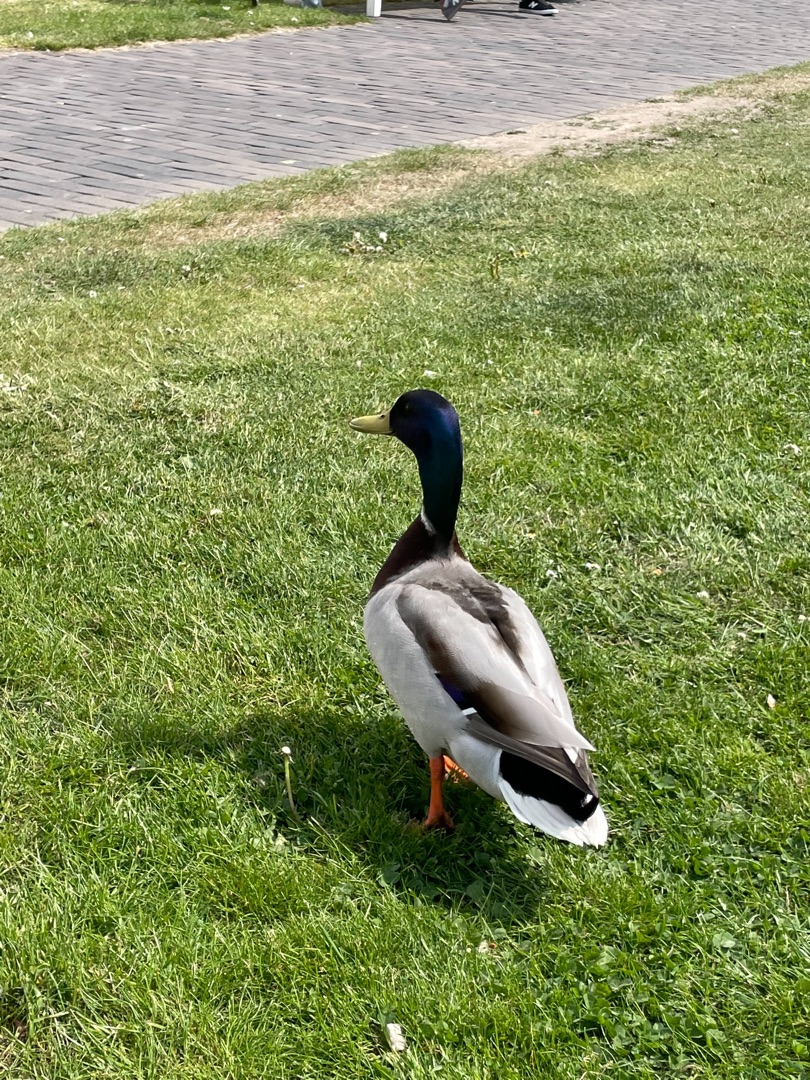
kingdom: Animalia
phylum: Chordata
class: Aves
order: Anseriformes
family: Anatidae
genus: Anas
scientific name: Anas platyrhynchos
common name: Gråand
